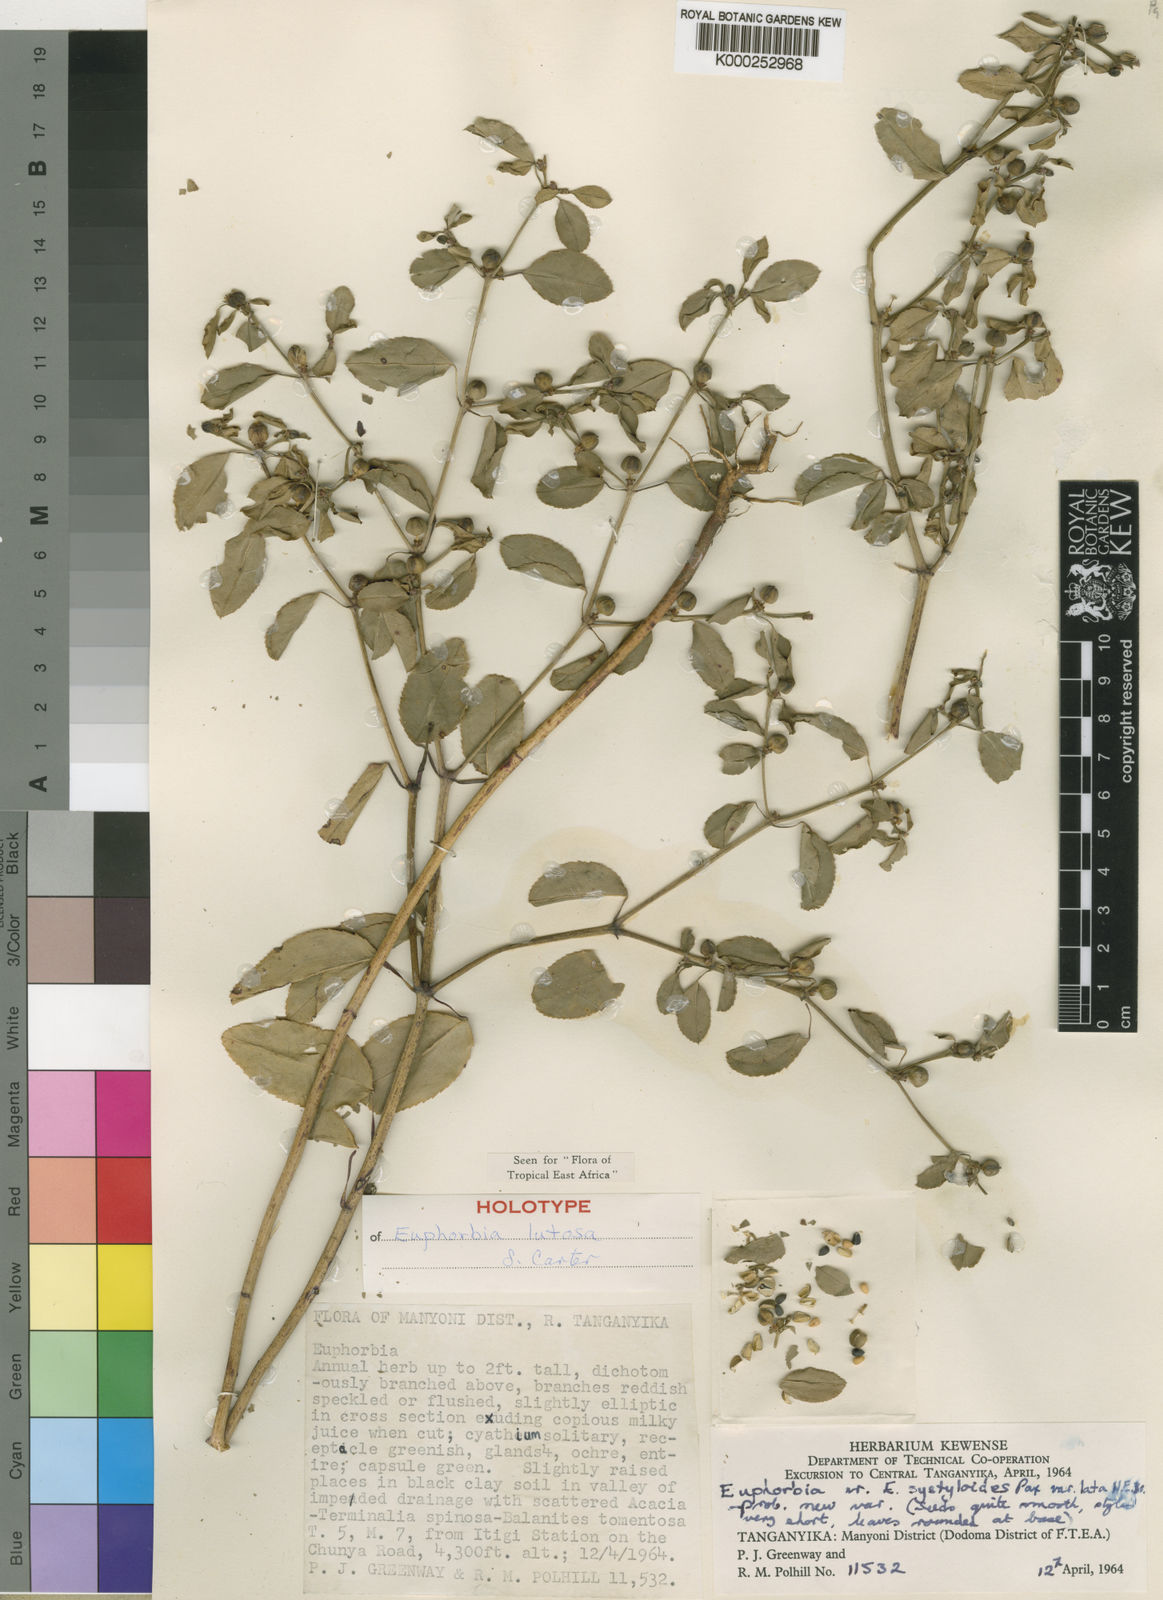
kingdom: Plantae
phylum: Tracheophyta
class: Magnoliopsida
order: Malpighiales
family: Euphorbiaceae
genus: Euphorbia
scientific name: Euphorbia lutosa
